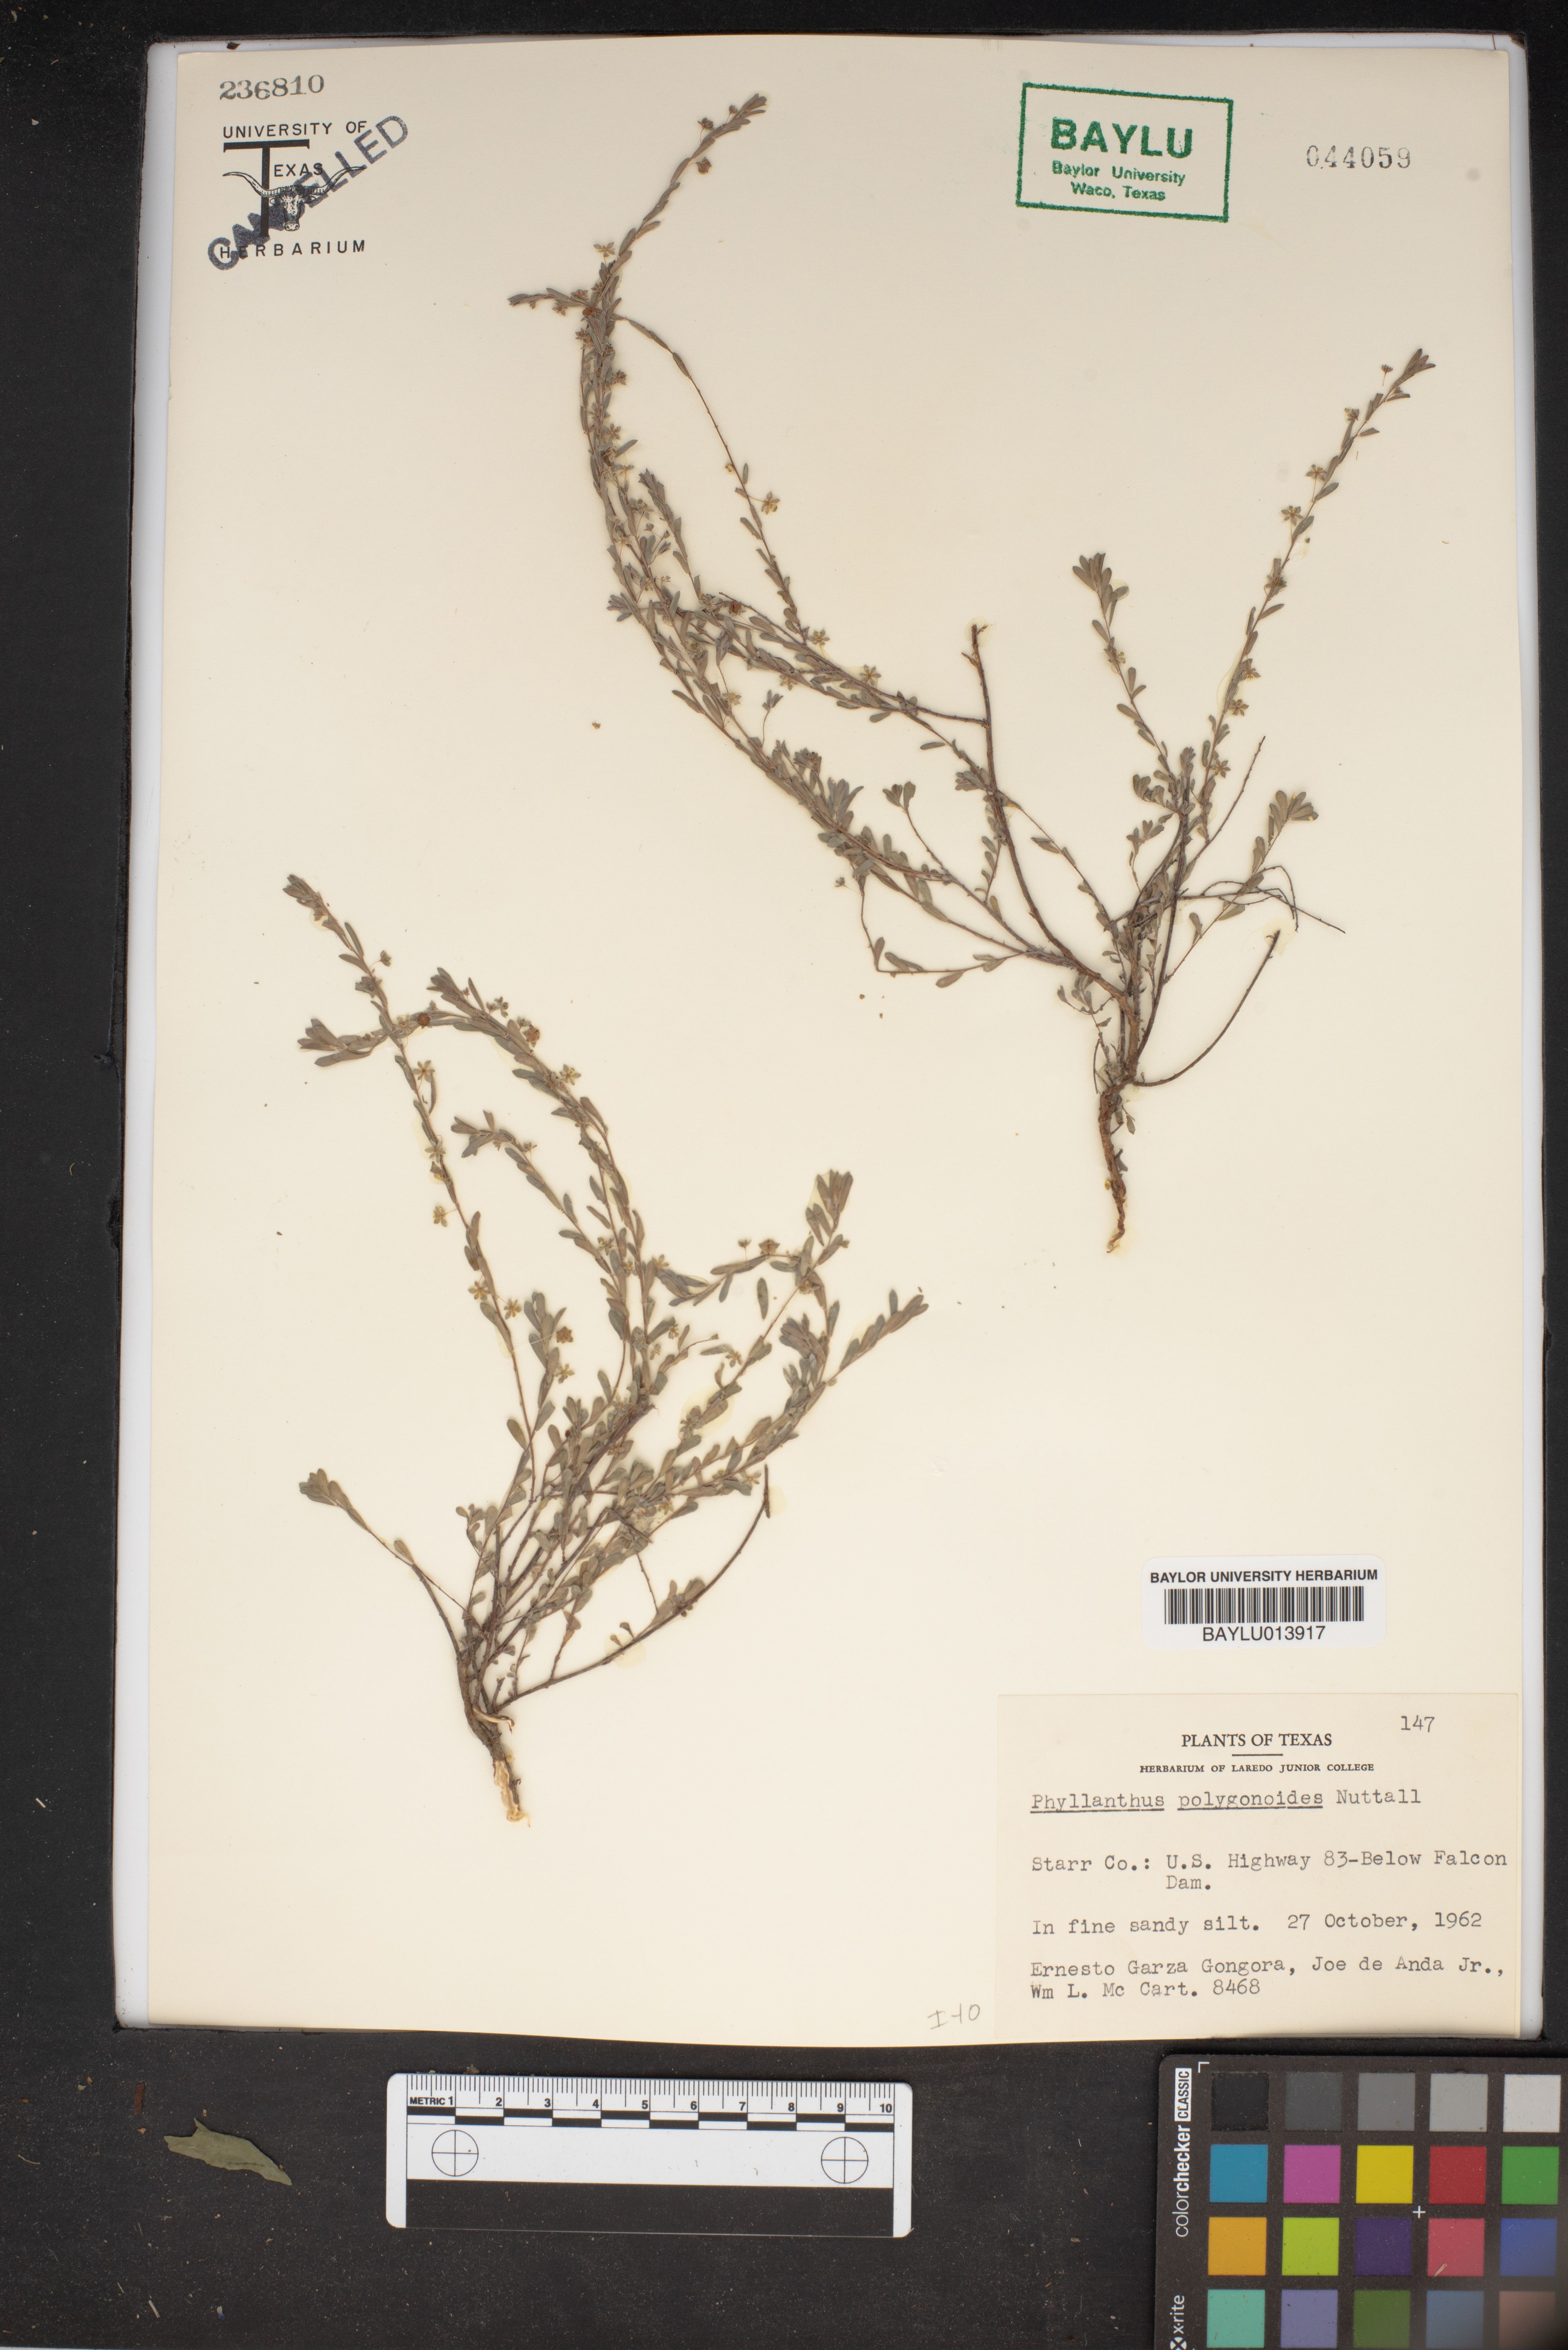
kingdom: Plantae
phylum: Tracheophyta
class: Magnoliopsida
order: Malpighiales
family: Phyllanthaceae
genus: Phyllanthus
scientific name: Phyllanthus polygonoides
